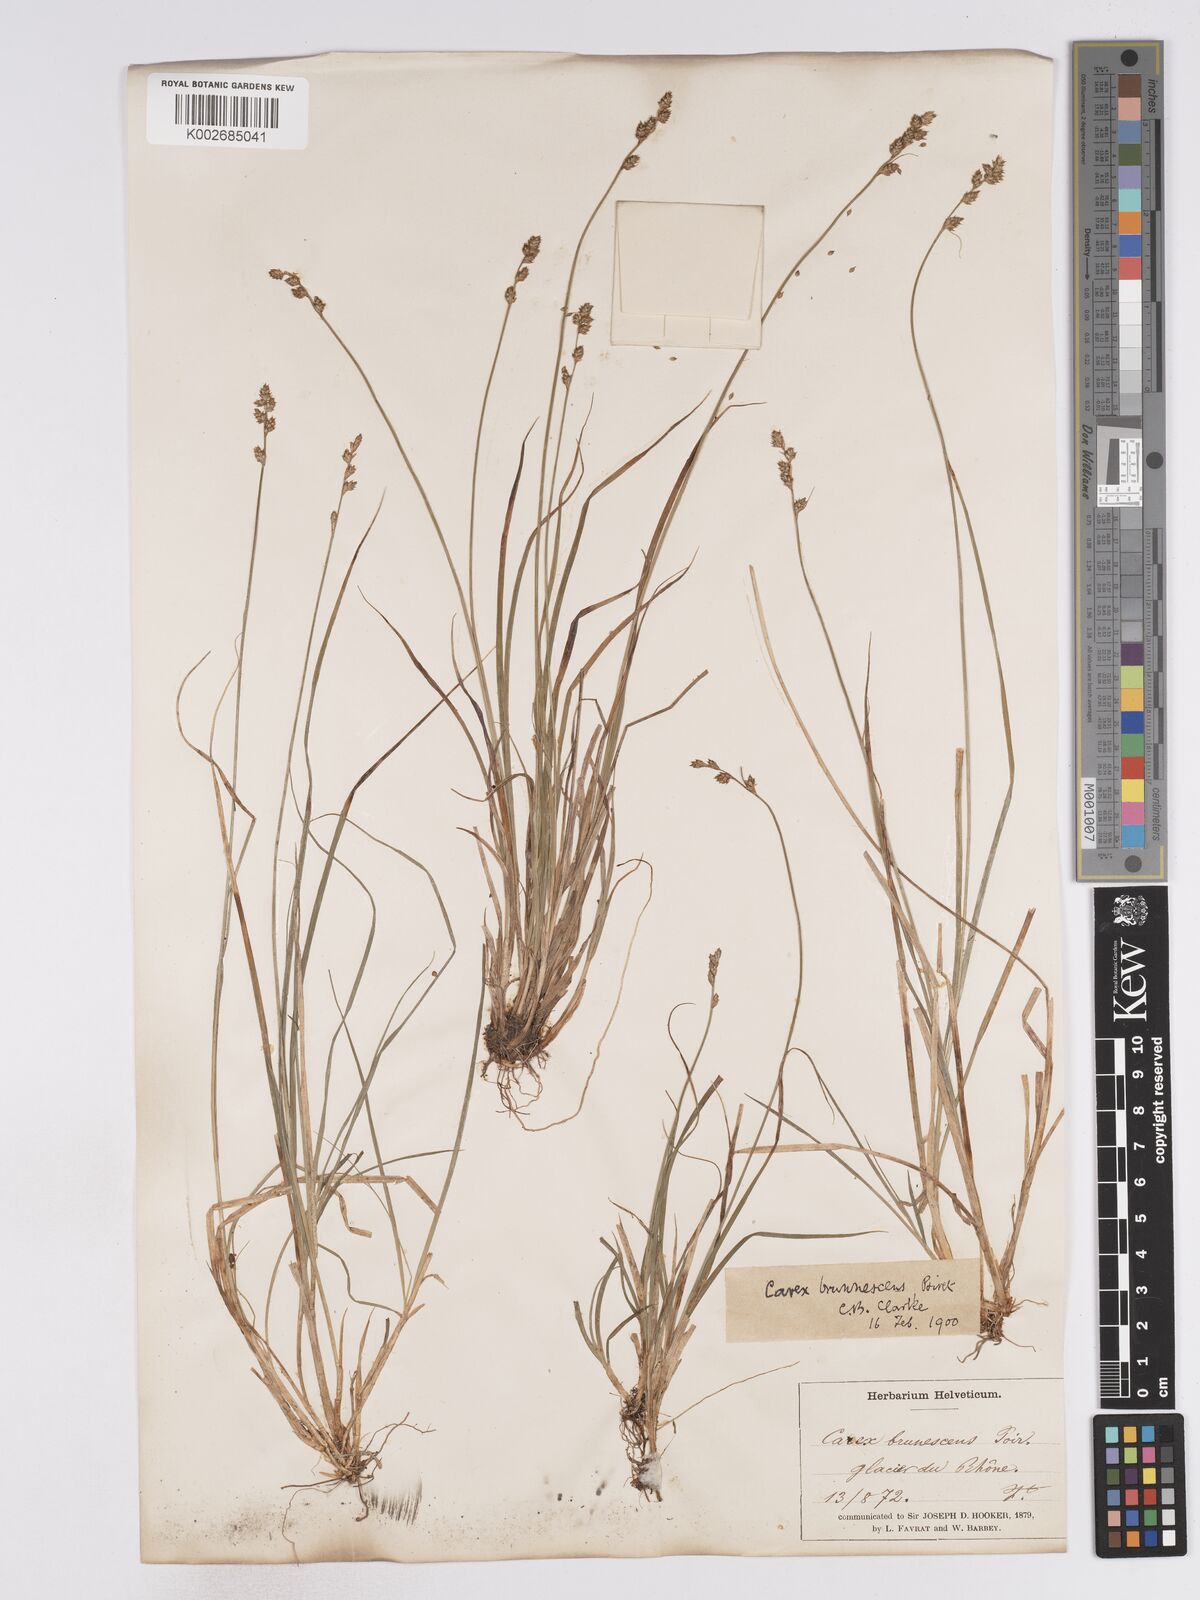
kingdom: Plantae
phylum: Tracheophyta
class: Liliopsida
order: Poales
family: Cyperaceae
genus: Carex
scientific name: Carex brunnescens
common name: Brown sedge
